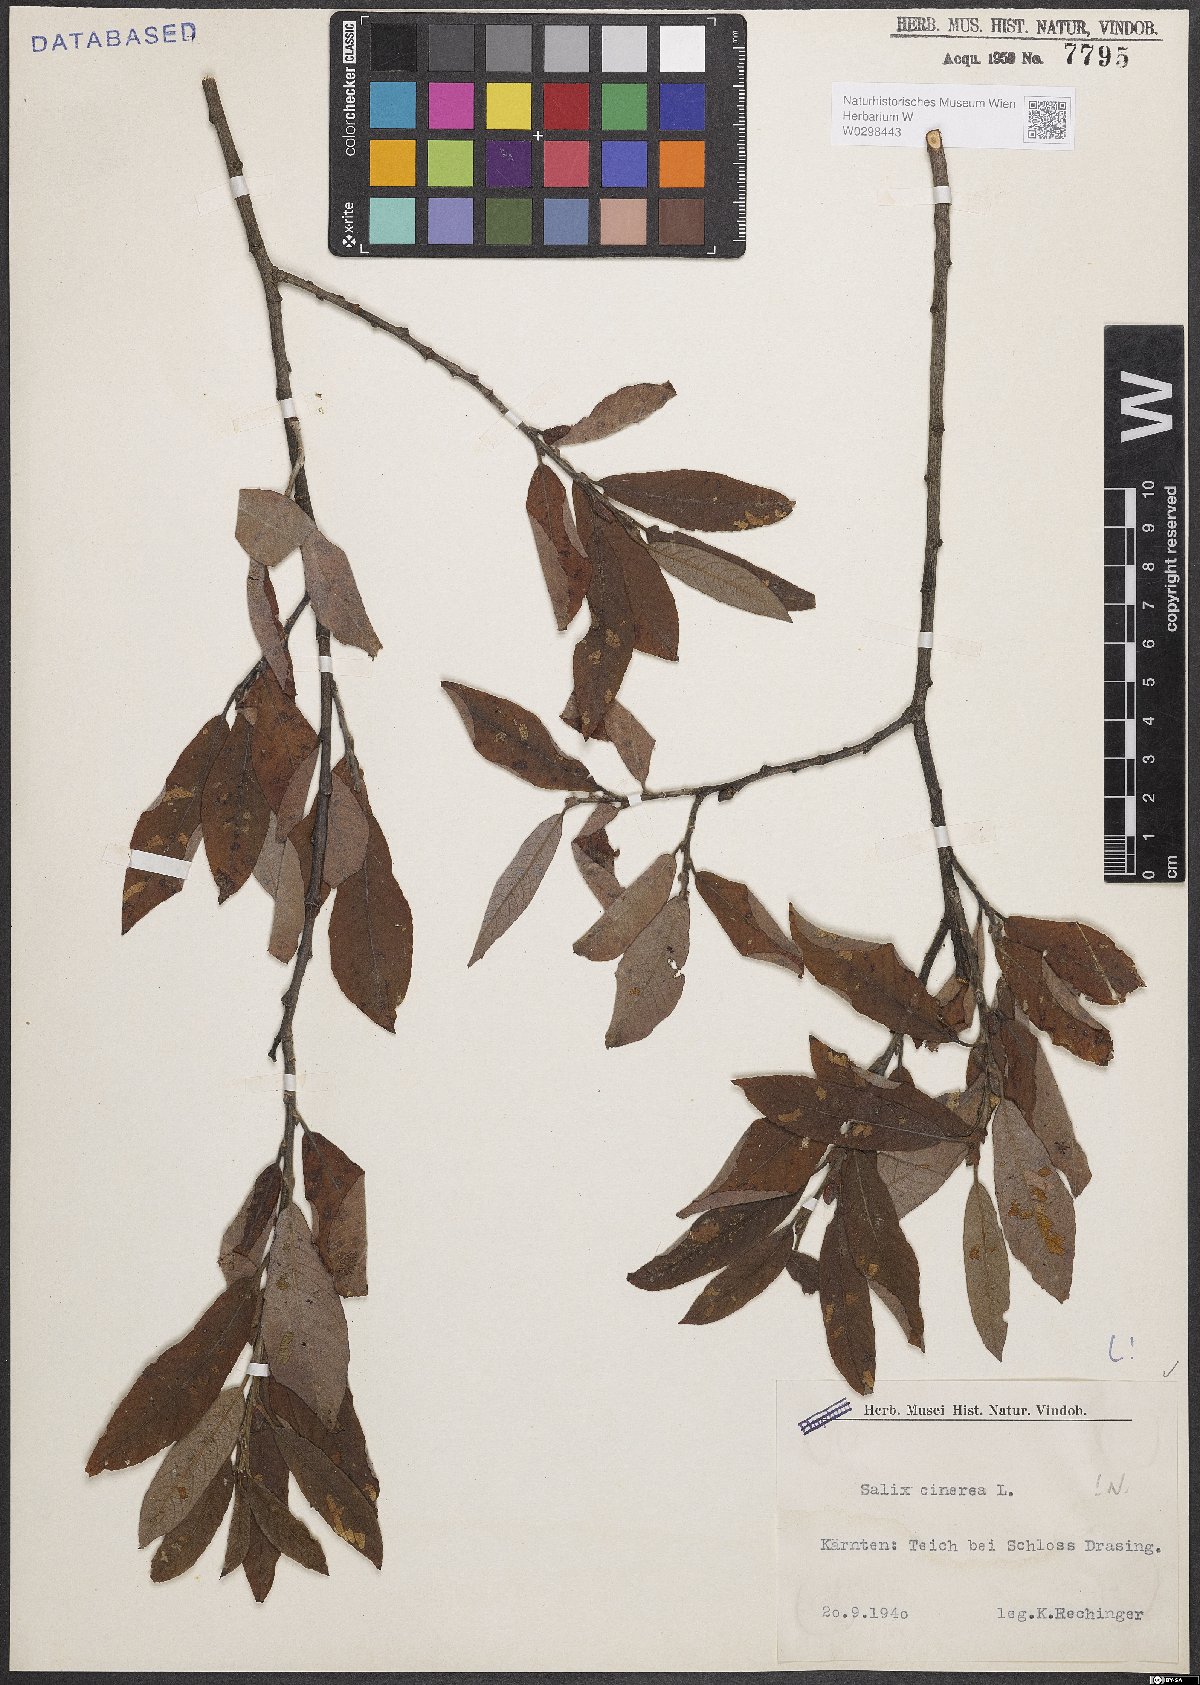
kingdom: Plantae
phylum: Tracheophyta
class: Magnoliopsida
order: Malpighiales
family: Salicaceae
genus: Salix
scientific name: Salix cinerea
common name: Common sallow
